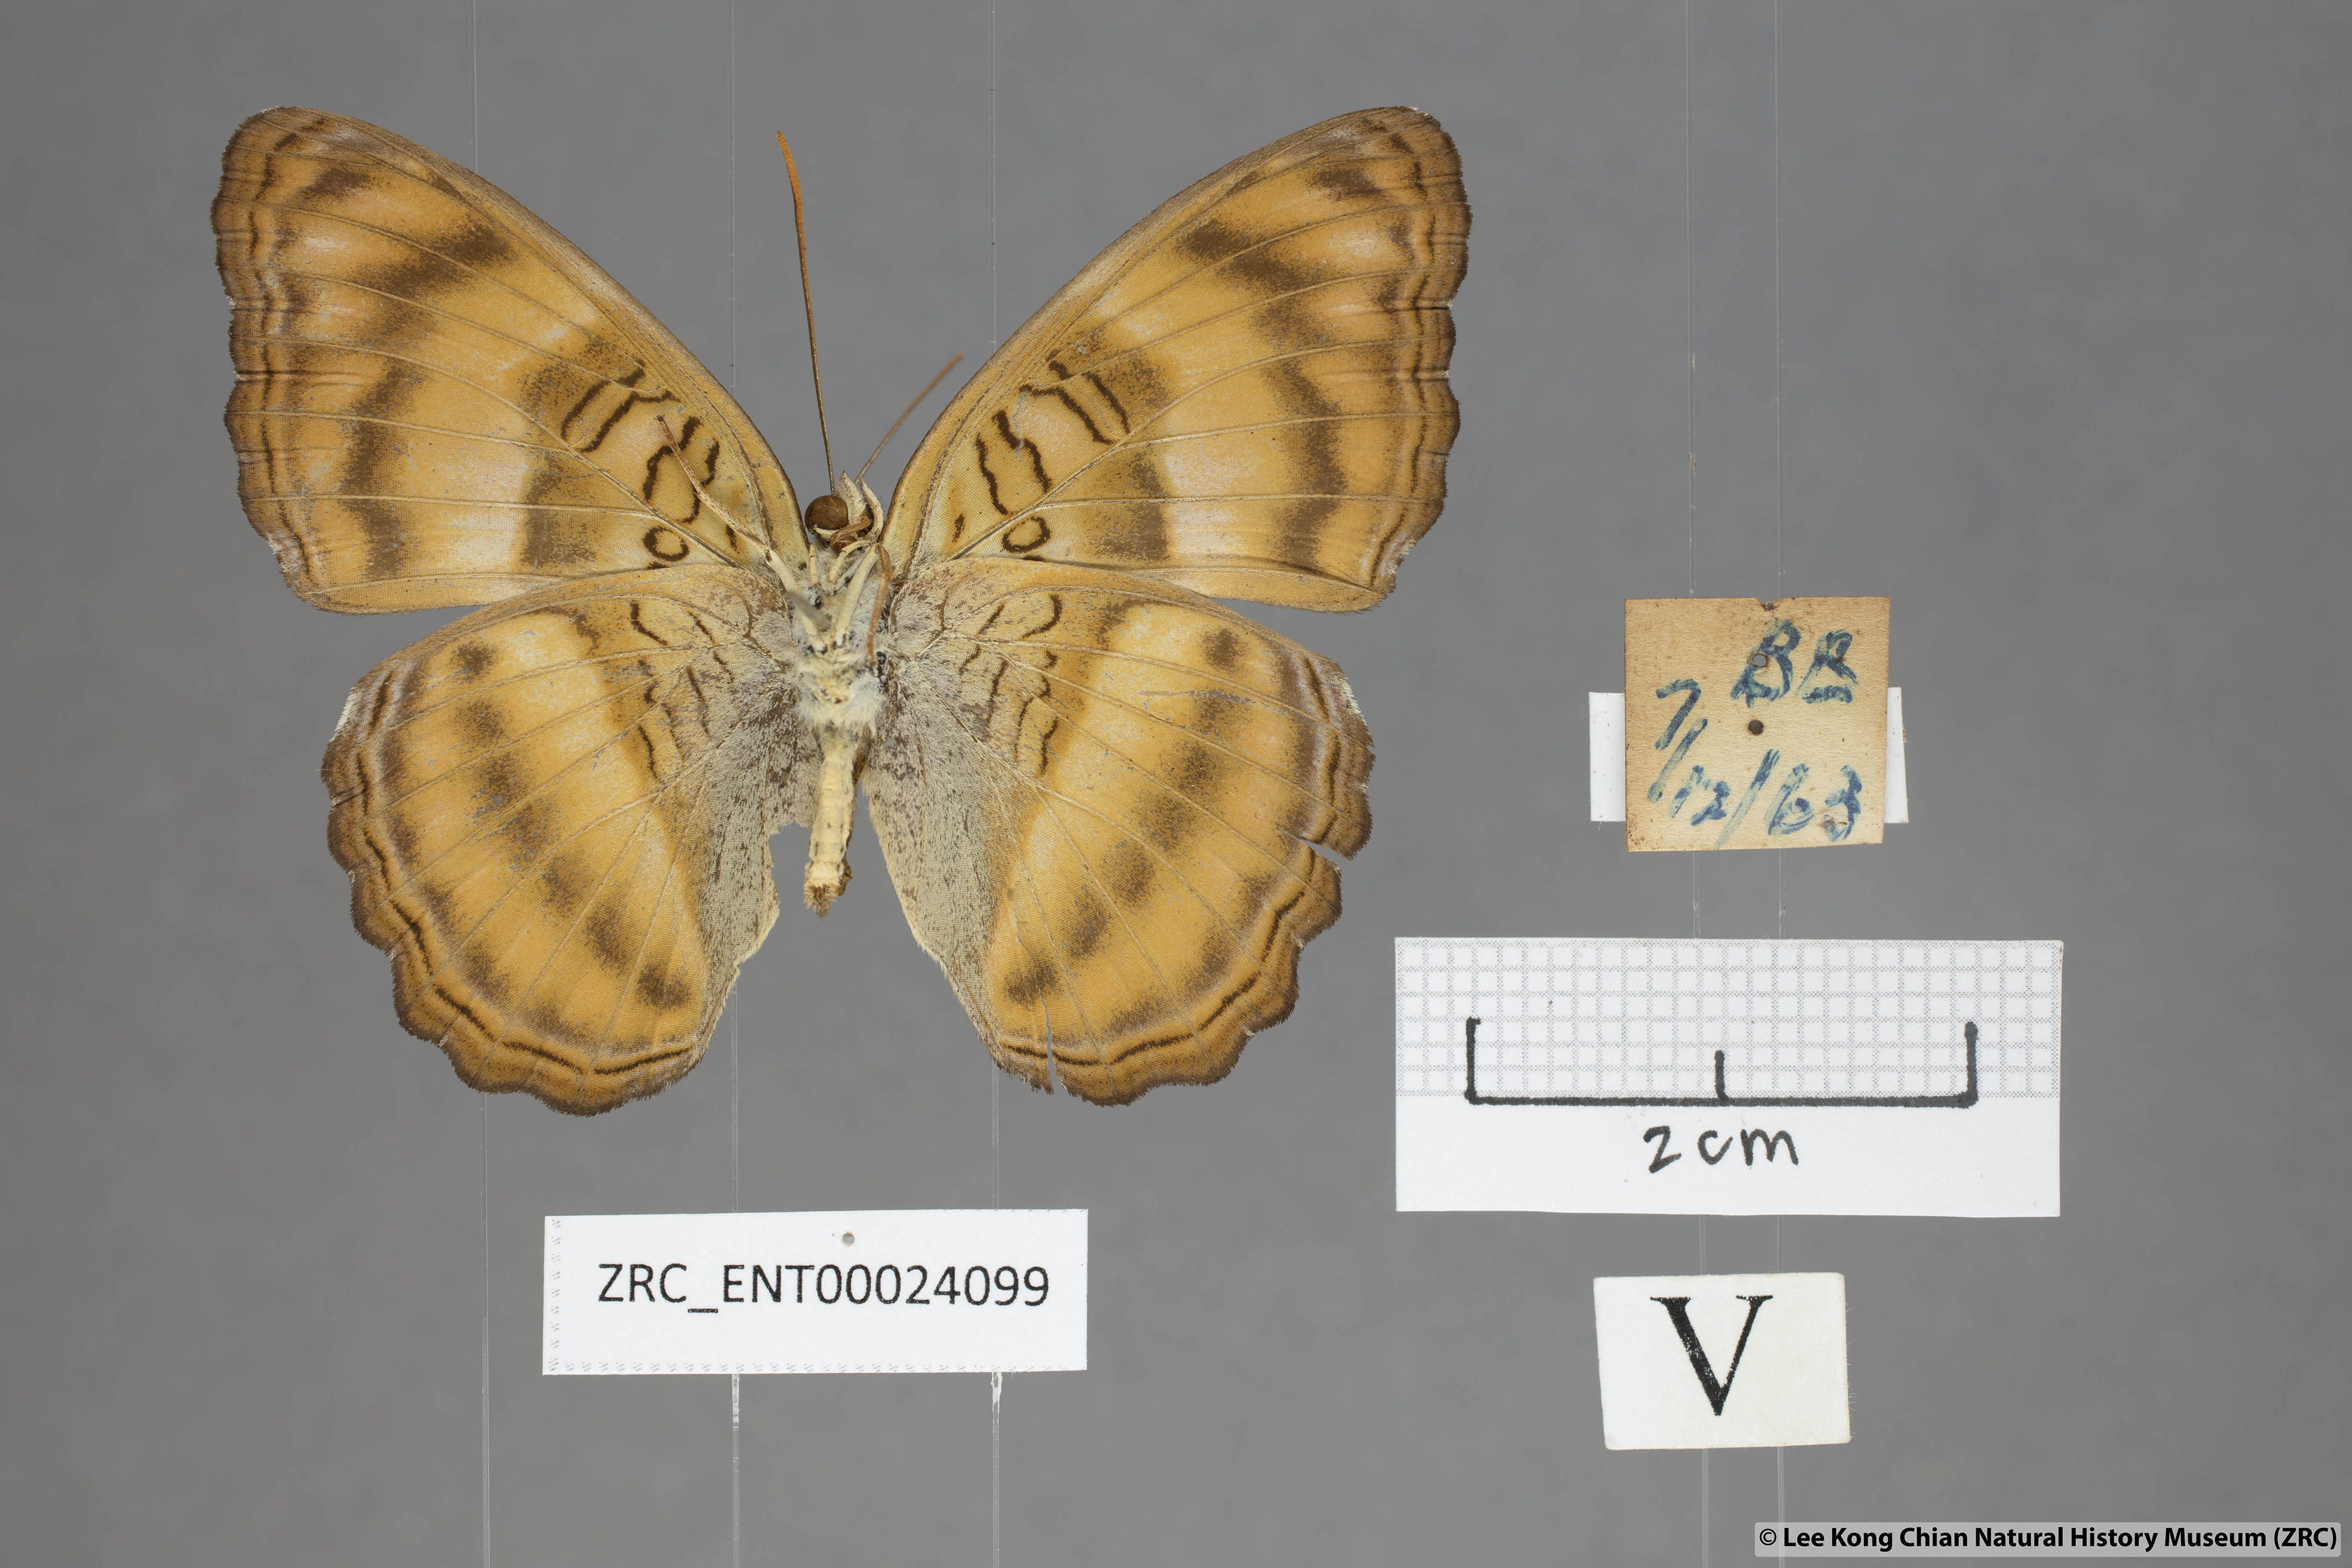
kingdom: Animalia
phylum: Arthropoda
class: Insecta
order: Lepidoptera
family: Nymphalidae
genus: Pandita
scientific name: Pandita sinope
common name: Colonel
